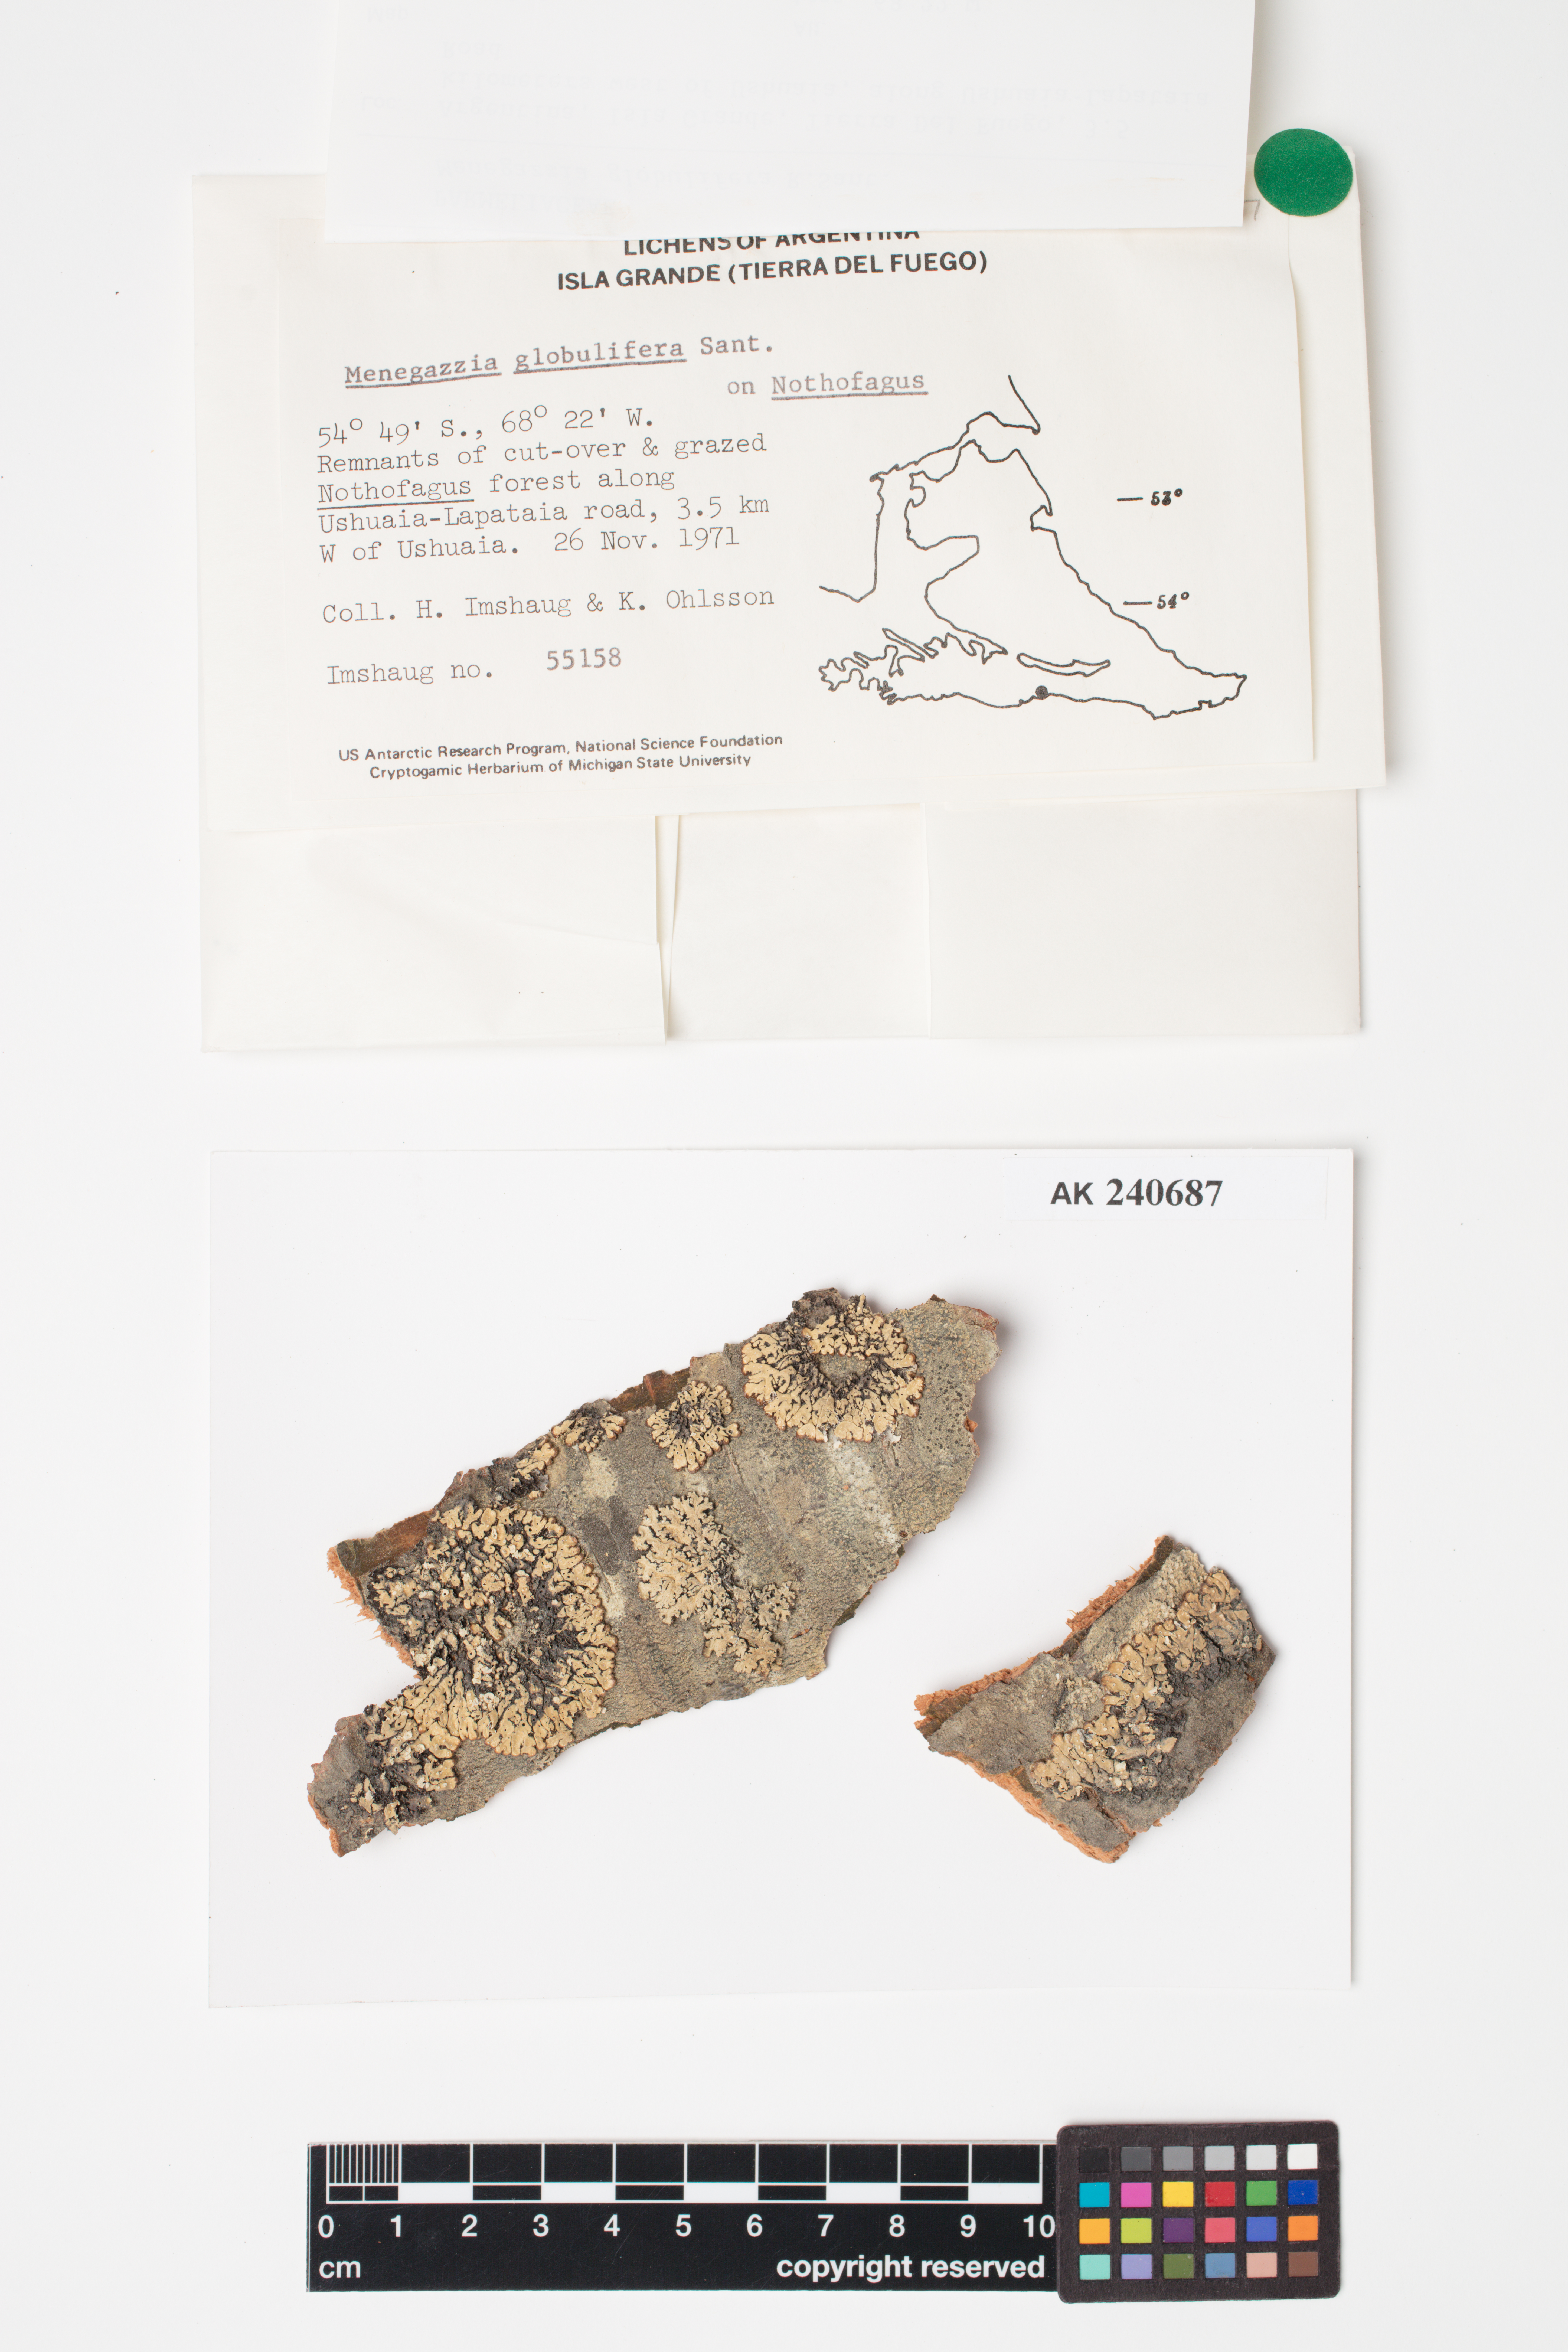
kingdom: Fungi
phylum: Ascomycota
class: Lecanoromycetes
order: Lecanorales
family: Parmeliaceae
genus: Menegazzia
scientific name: Menegazzia globulifera
